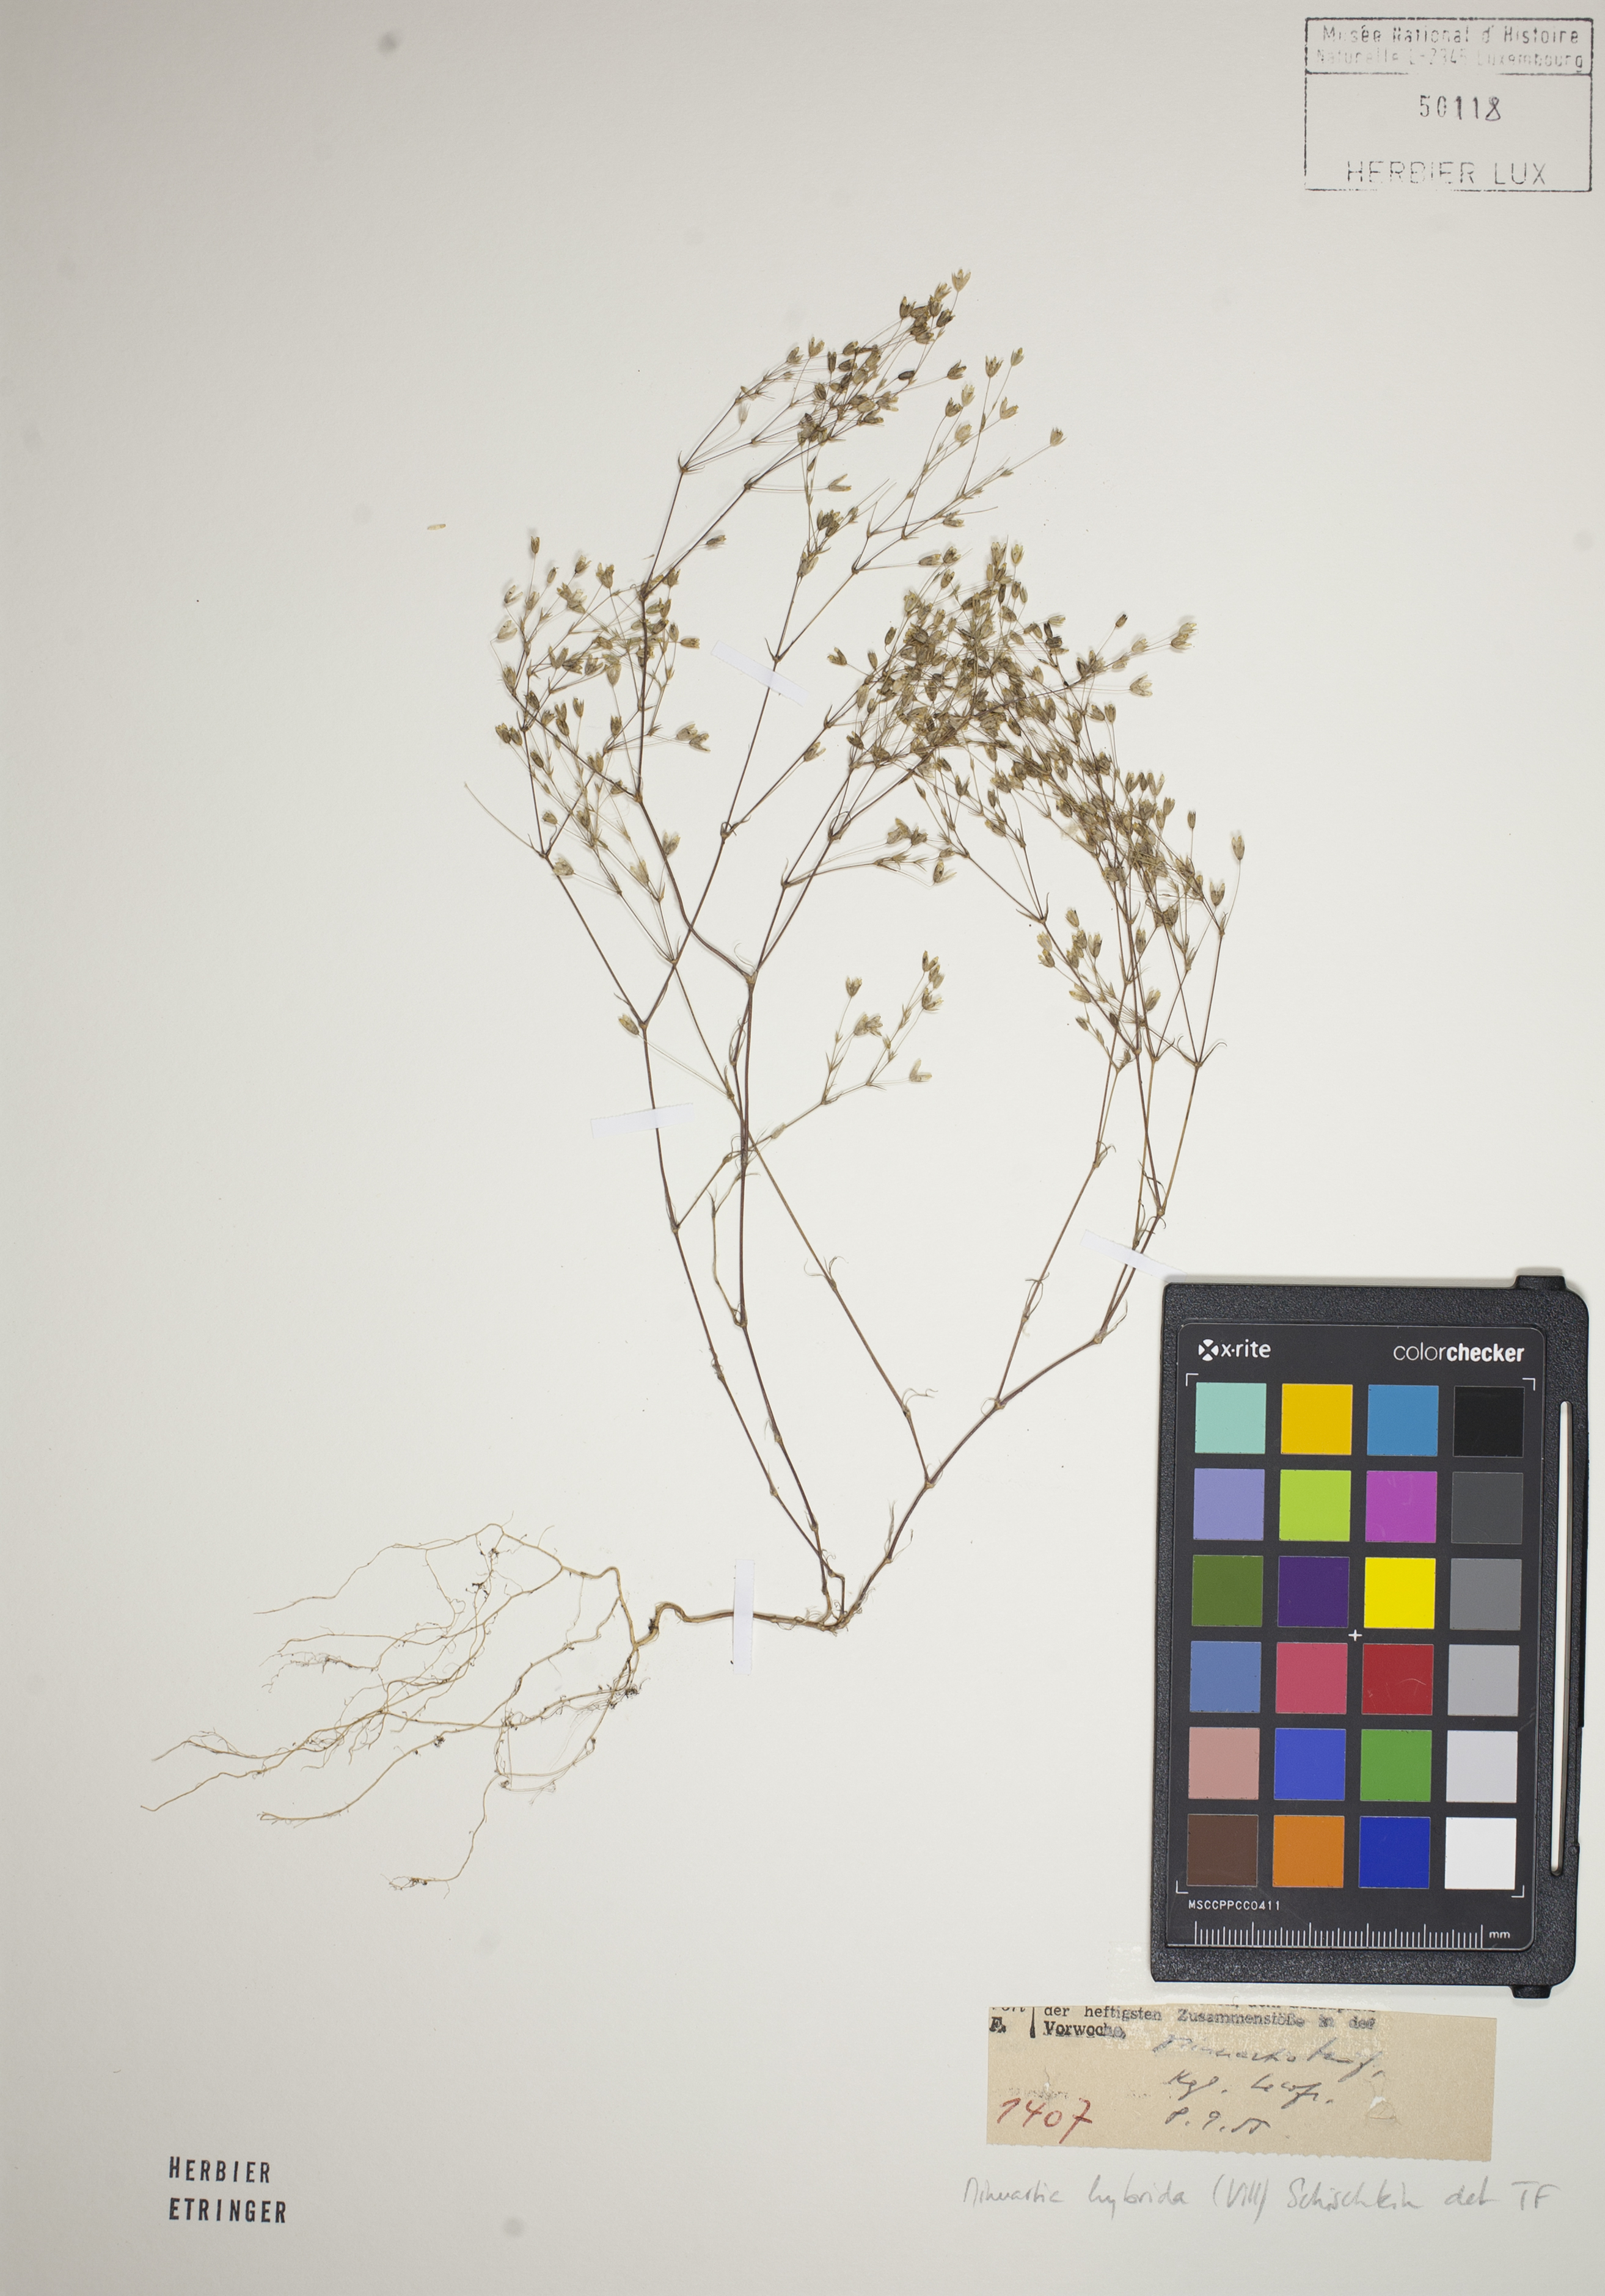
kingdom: Plantae
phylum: Tracheophyta
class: Magnoliopsida
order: Caryophyllales
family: Caryophyllaceae
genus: Sabulina
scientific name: Sabulina tenuifolia
